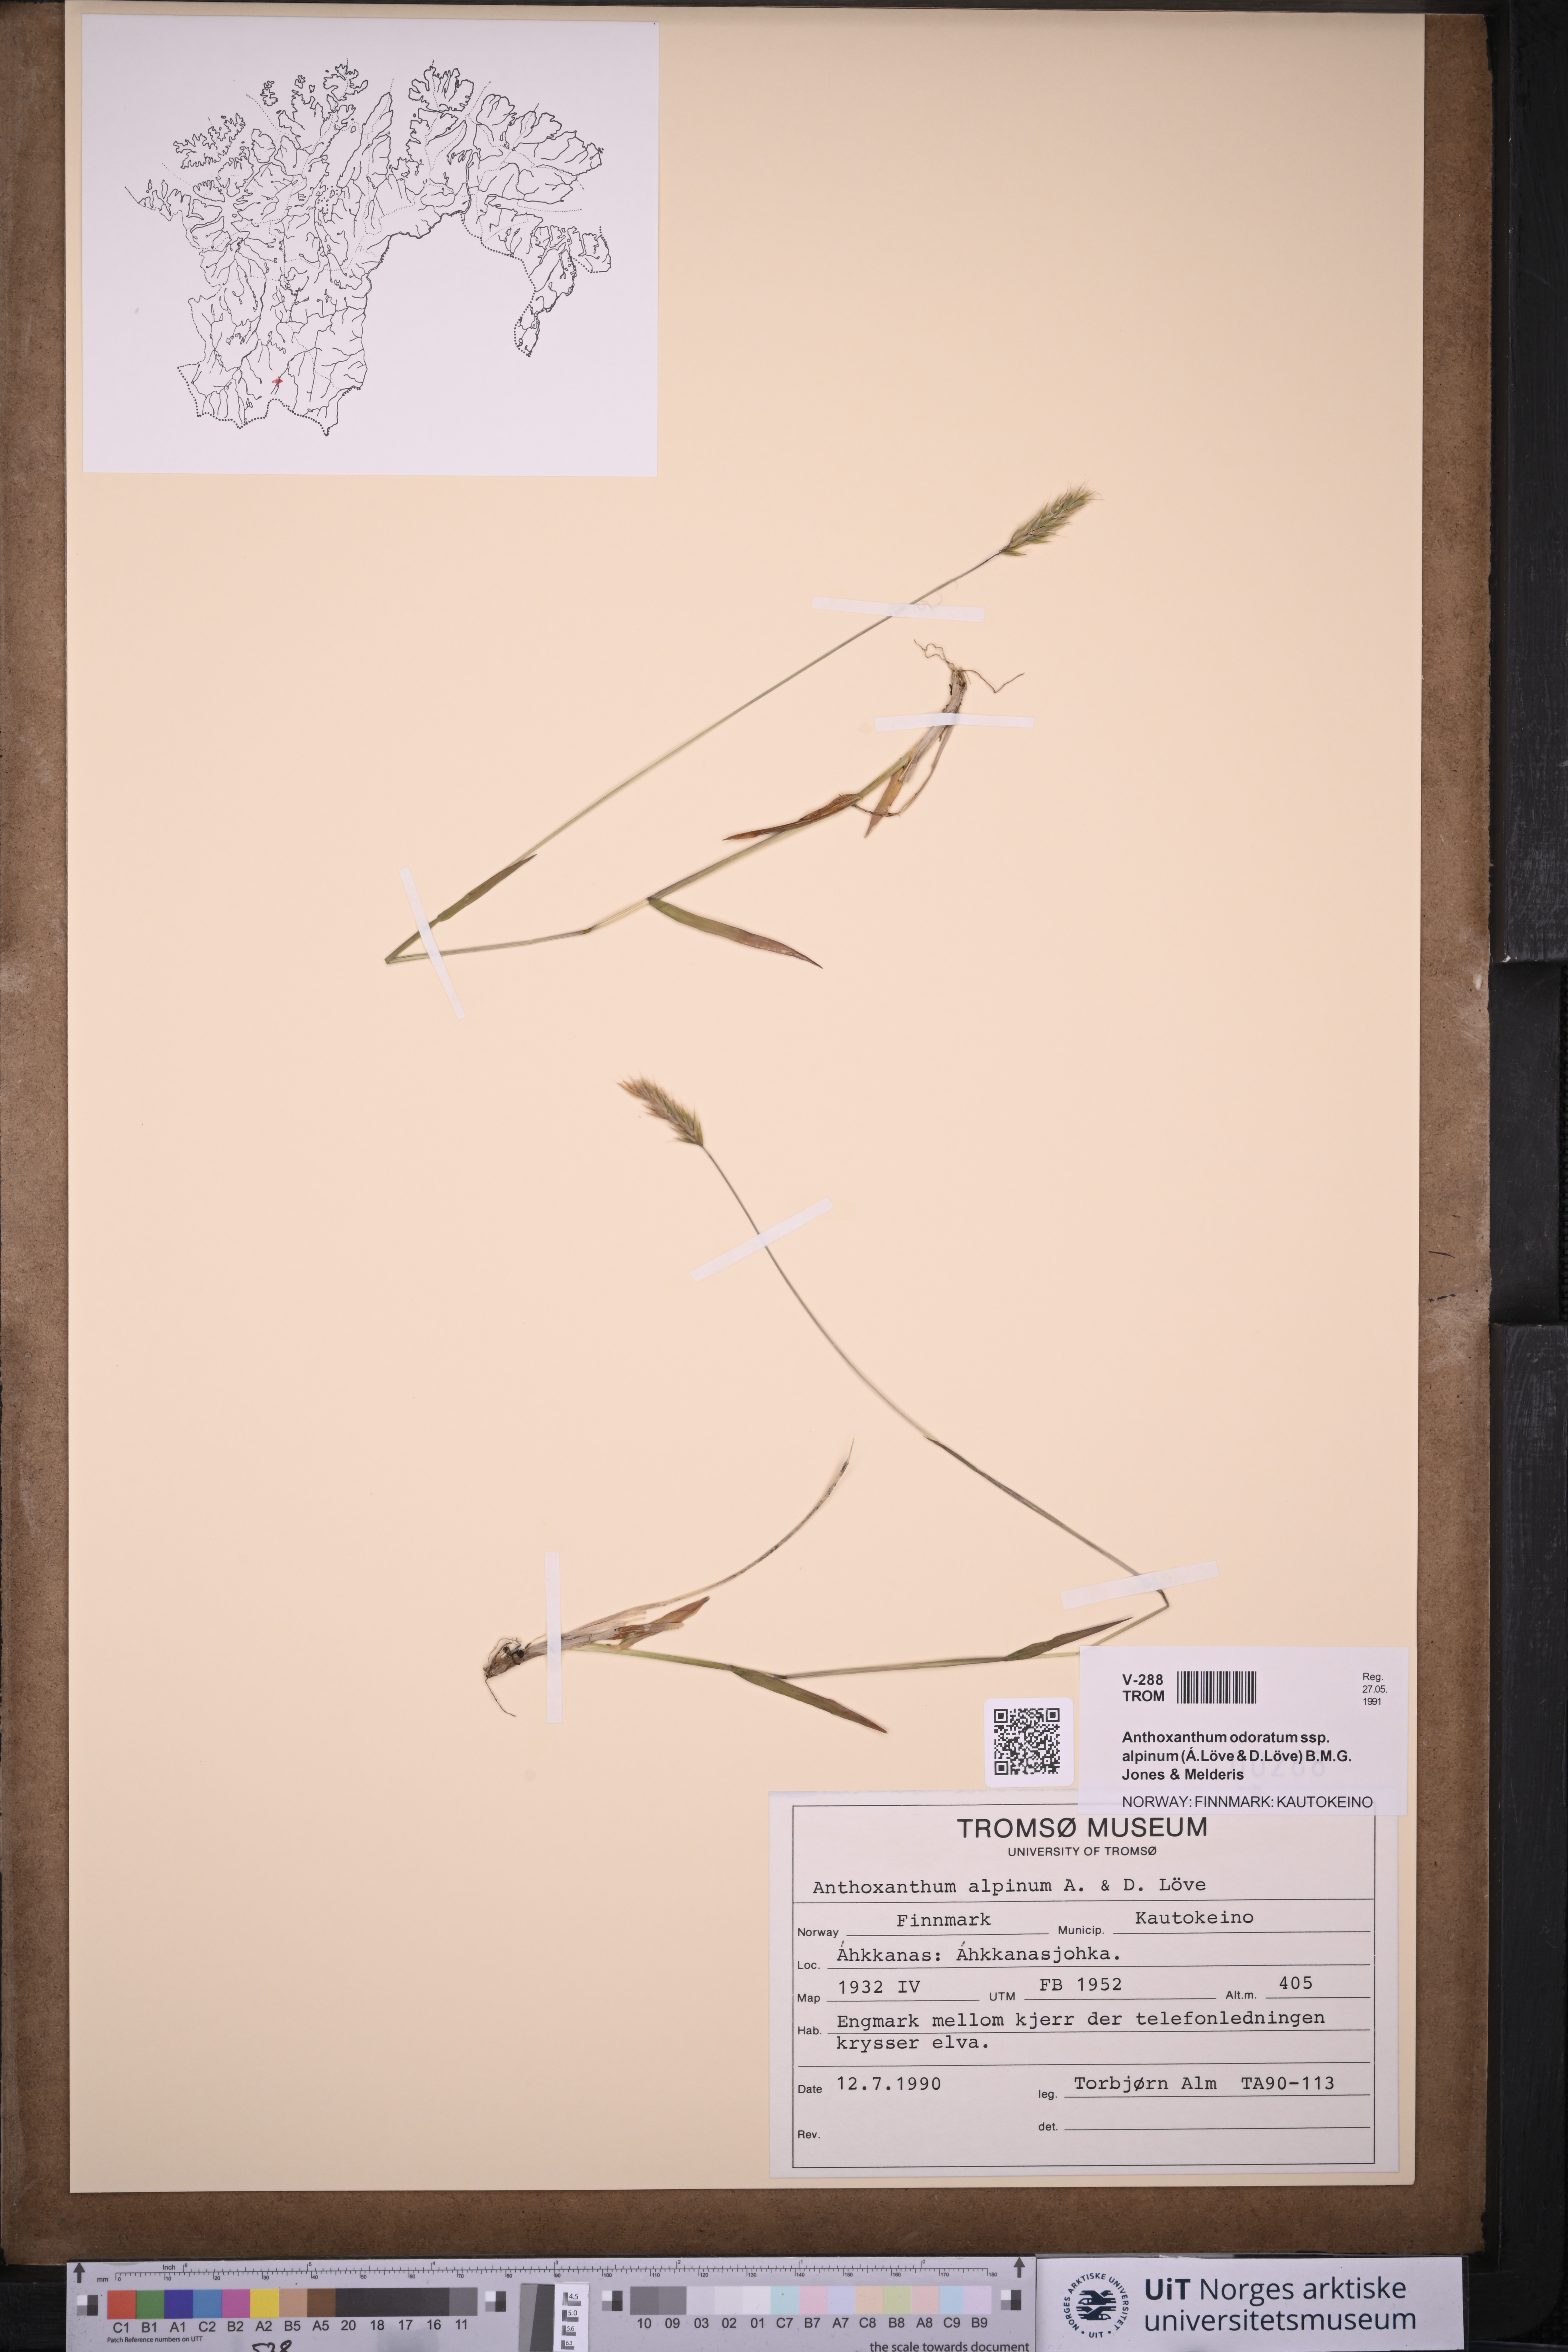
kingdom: Plantae
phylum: Tracheophyta
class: Liliopsida
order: Poales
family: Poaceae
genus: Anthoxanthum
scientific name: Anthoxanthum nipponicum
